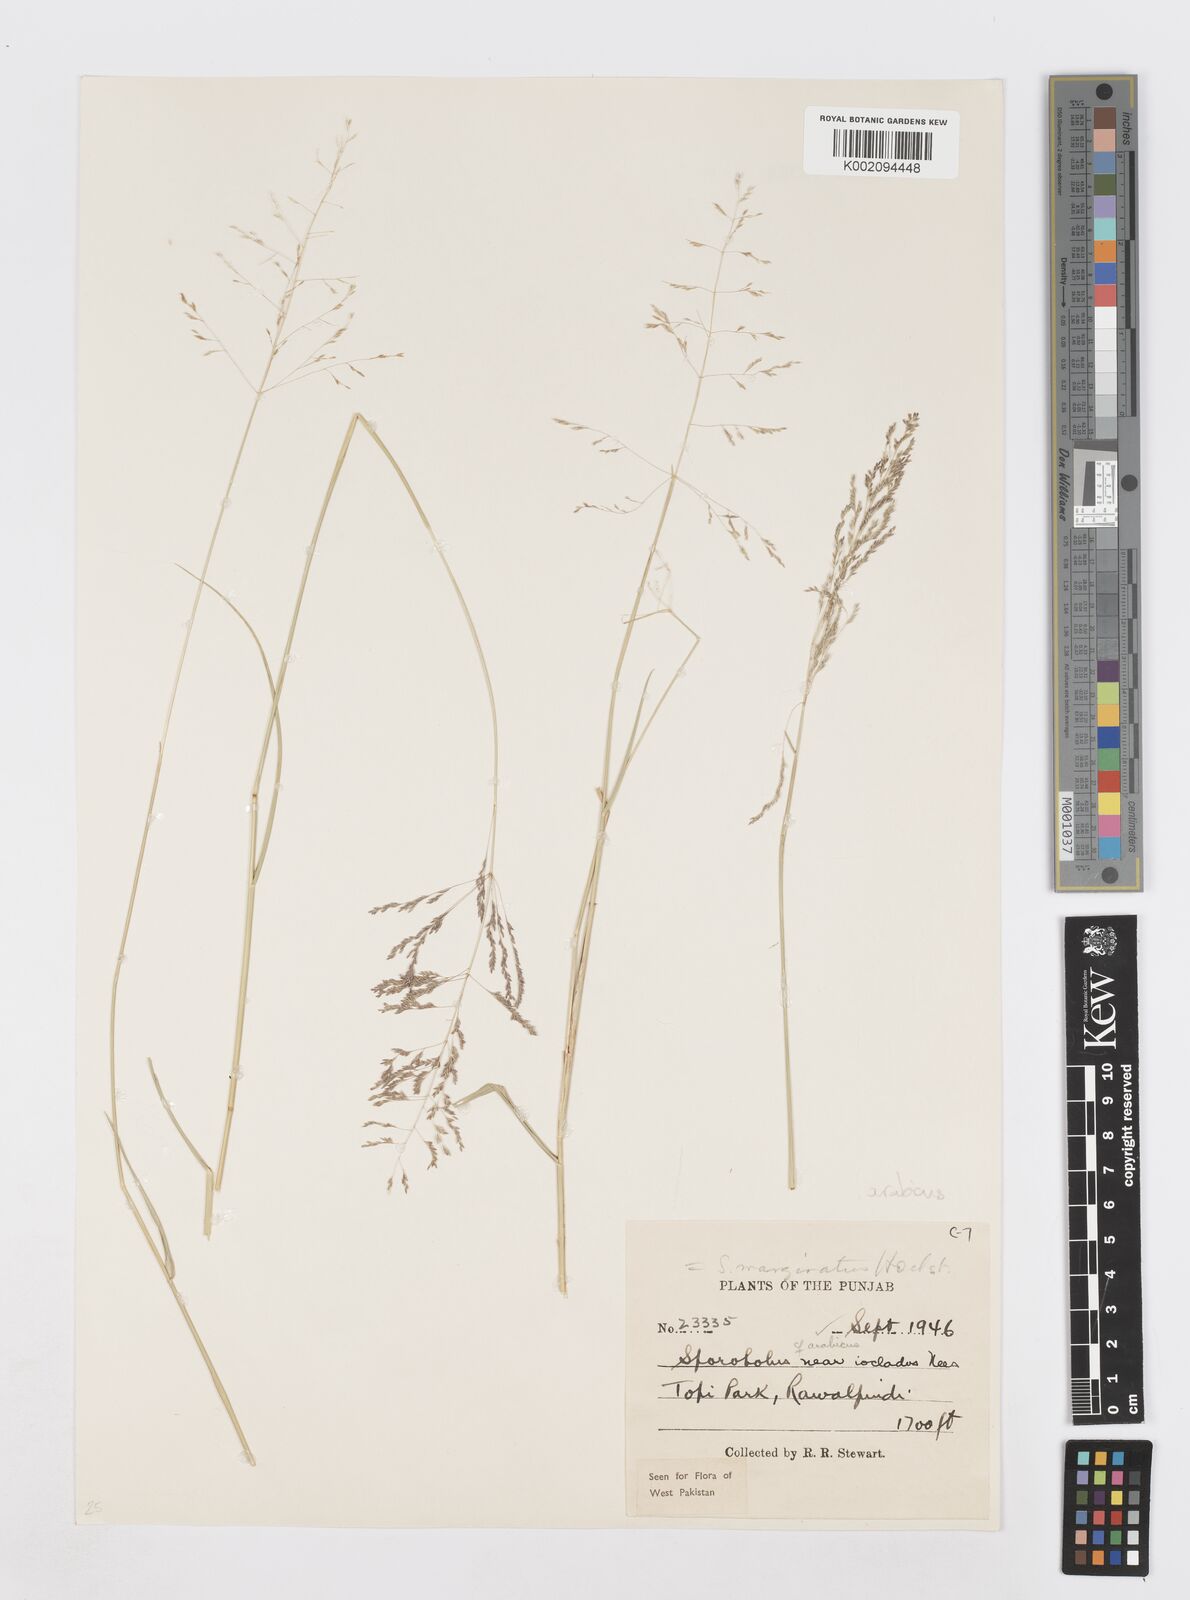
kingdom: Plantae
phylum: Tracheophyta
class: Liliopsida
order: Poales
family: Poaceae
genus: Sporobolus
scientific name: Sporobolus ioclados
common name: Pan dropseed
